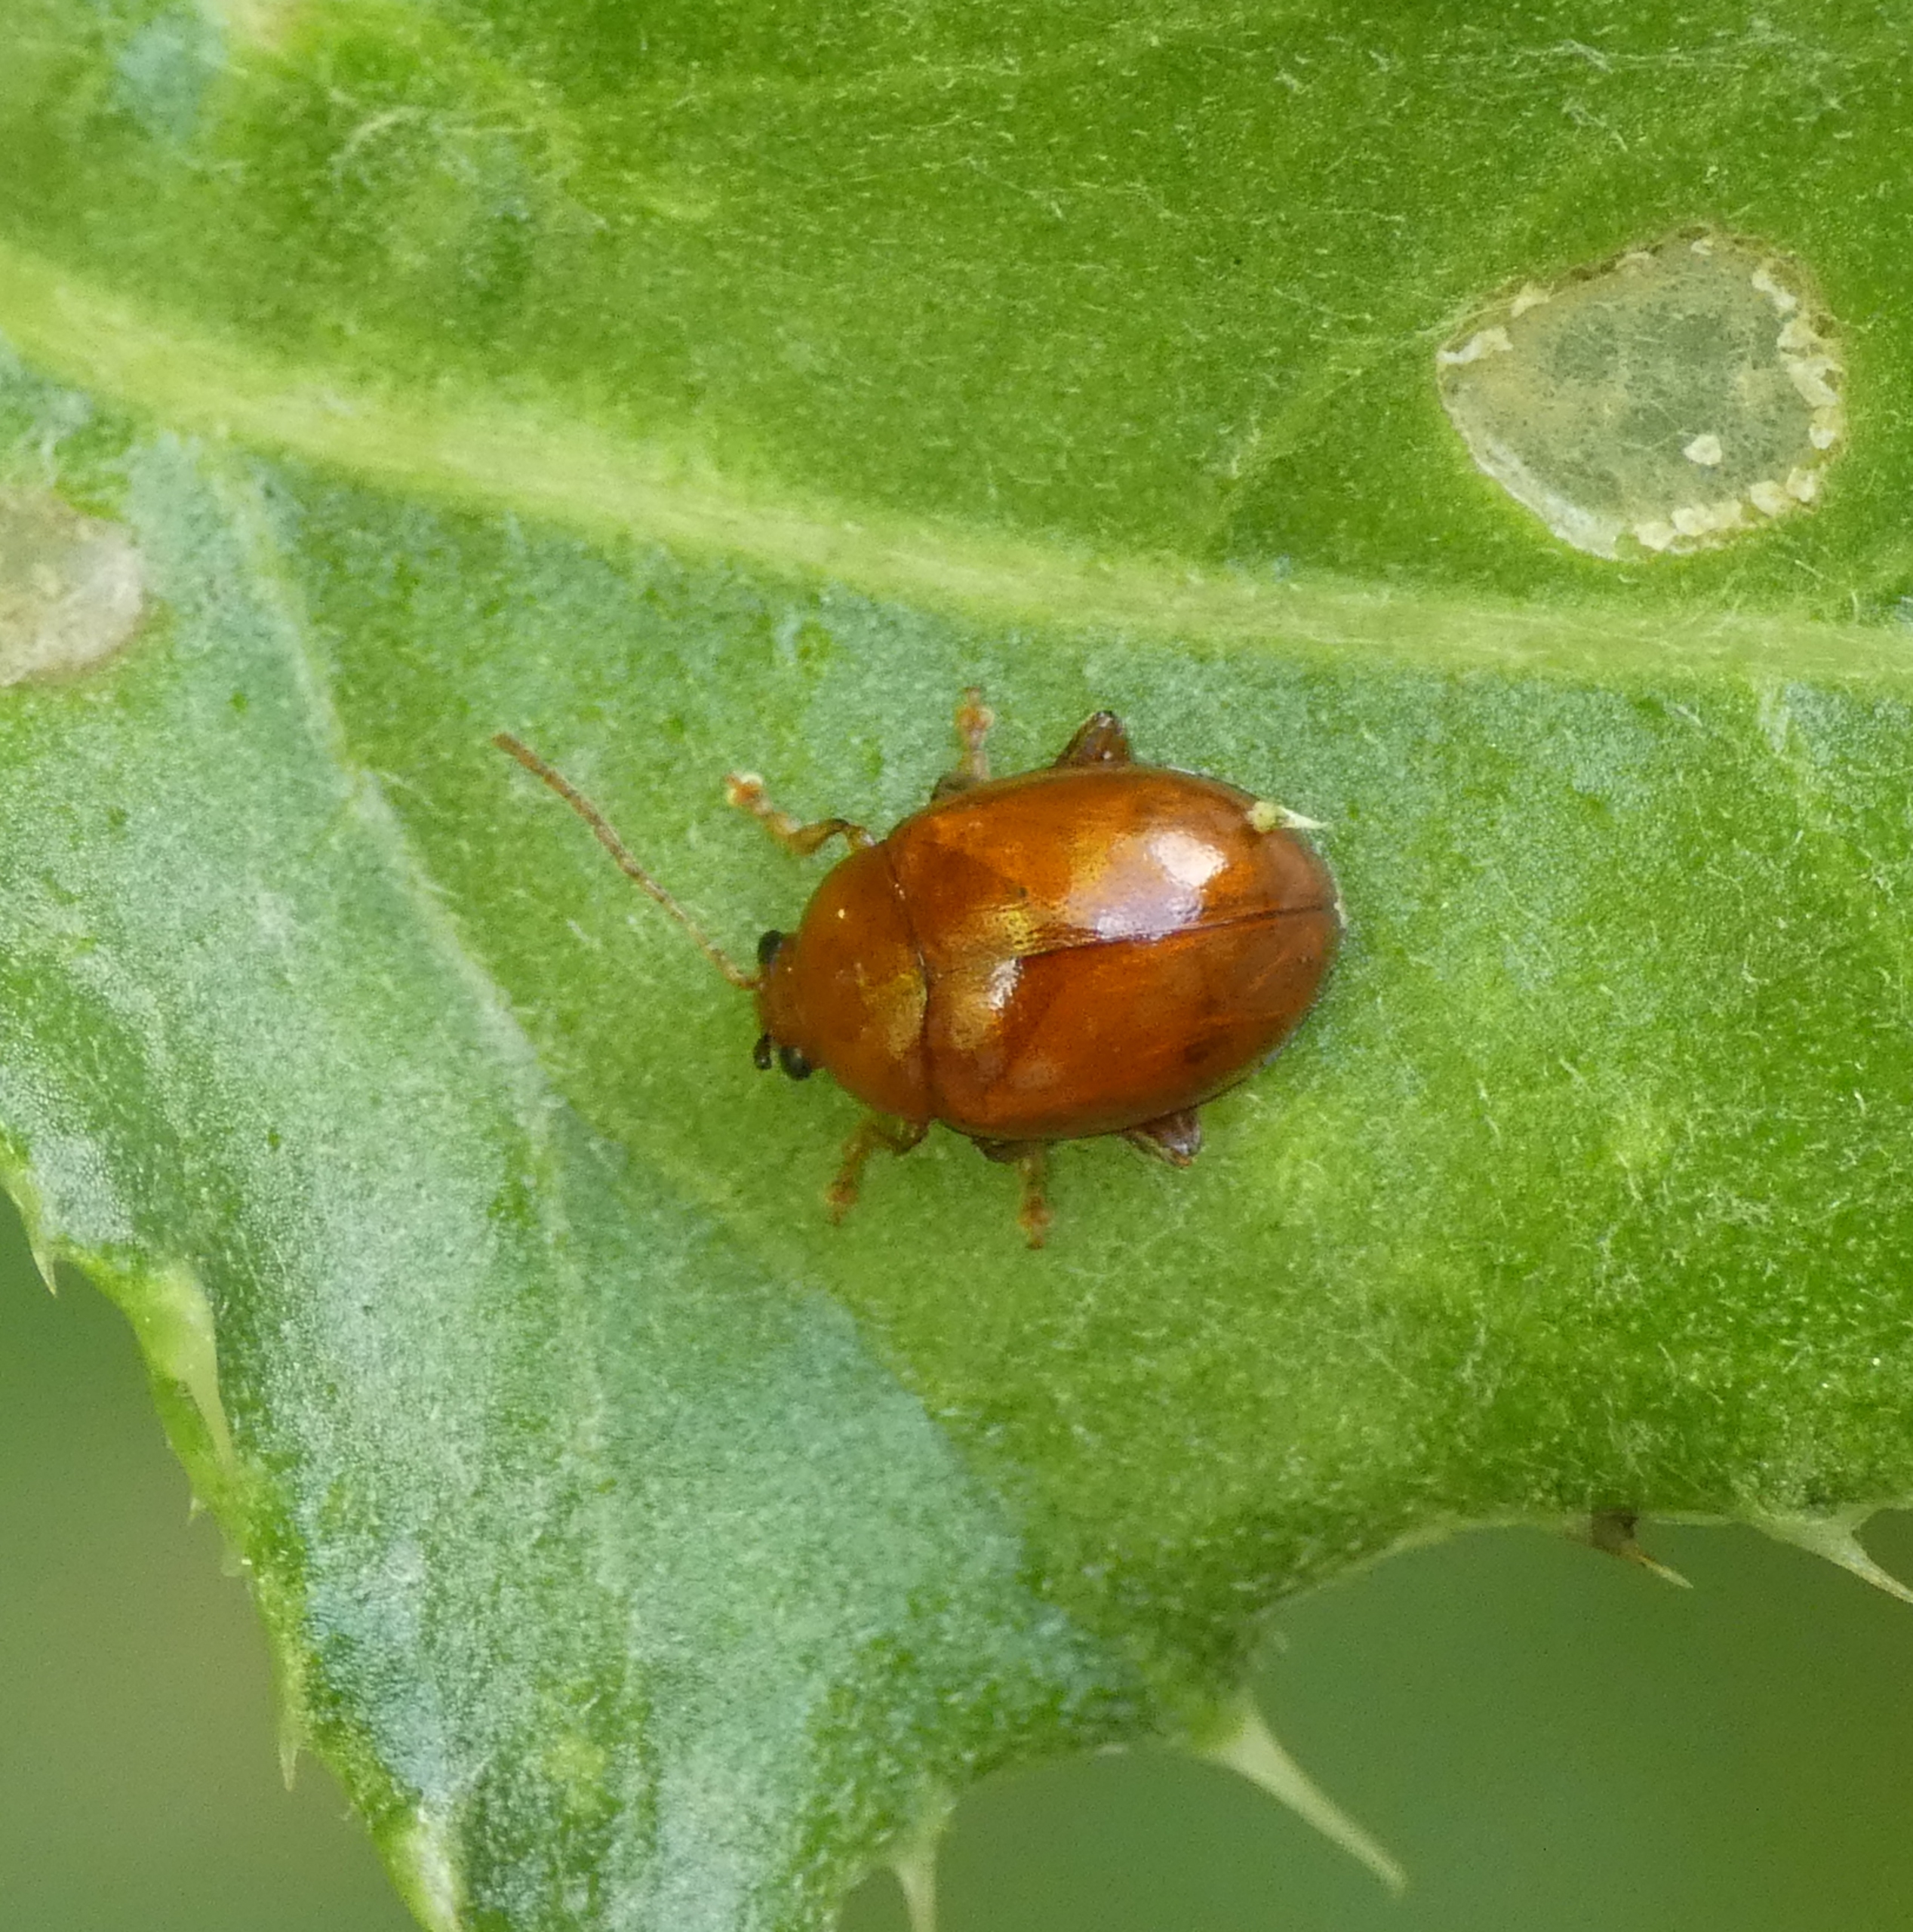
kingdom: Animalia
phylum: Arthropoda
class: Insecta
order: Coleoptera
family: Chrysomelidae
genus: Pistosia
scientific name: Pistosia testacea
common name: Tidselkuglebille
